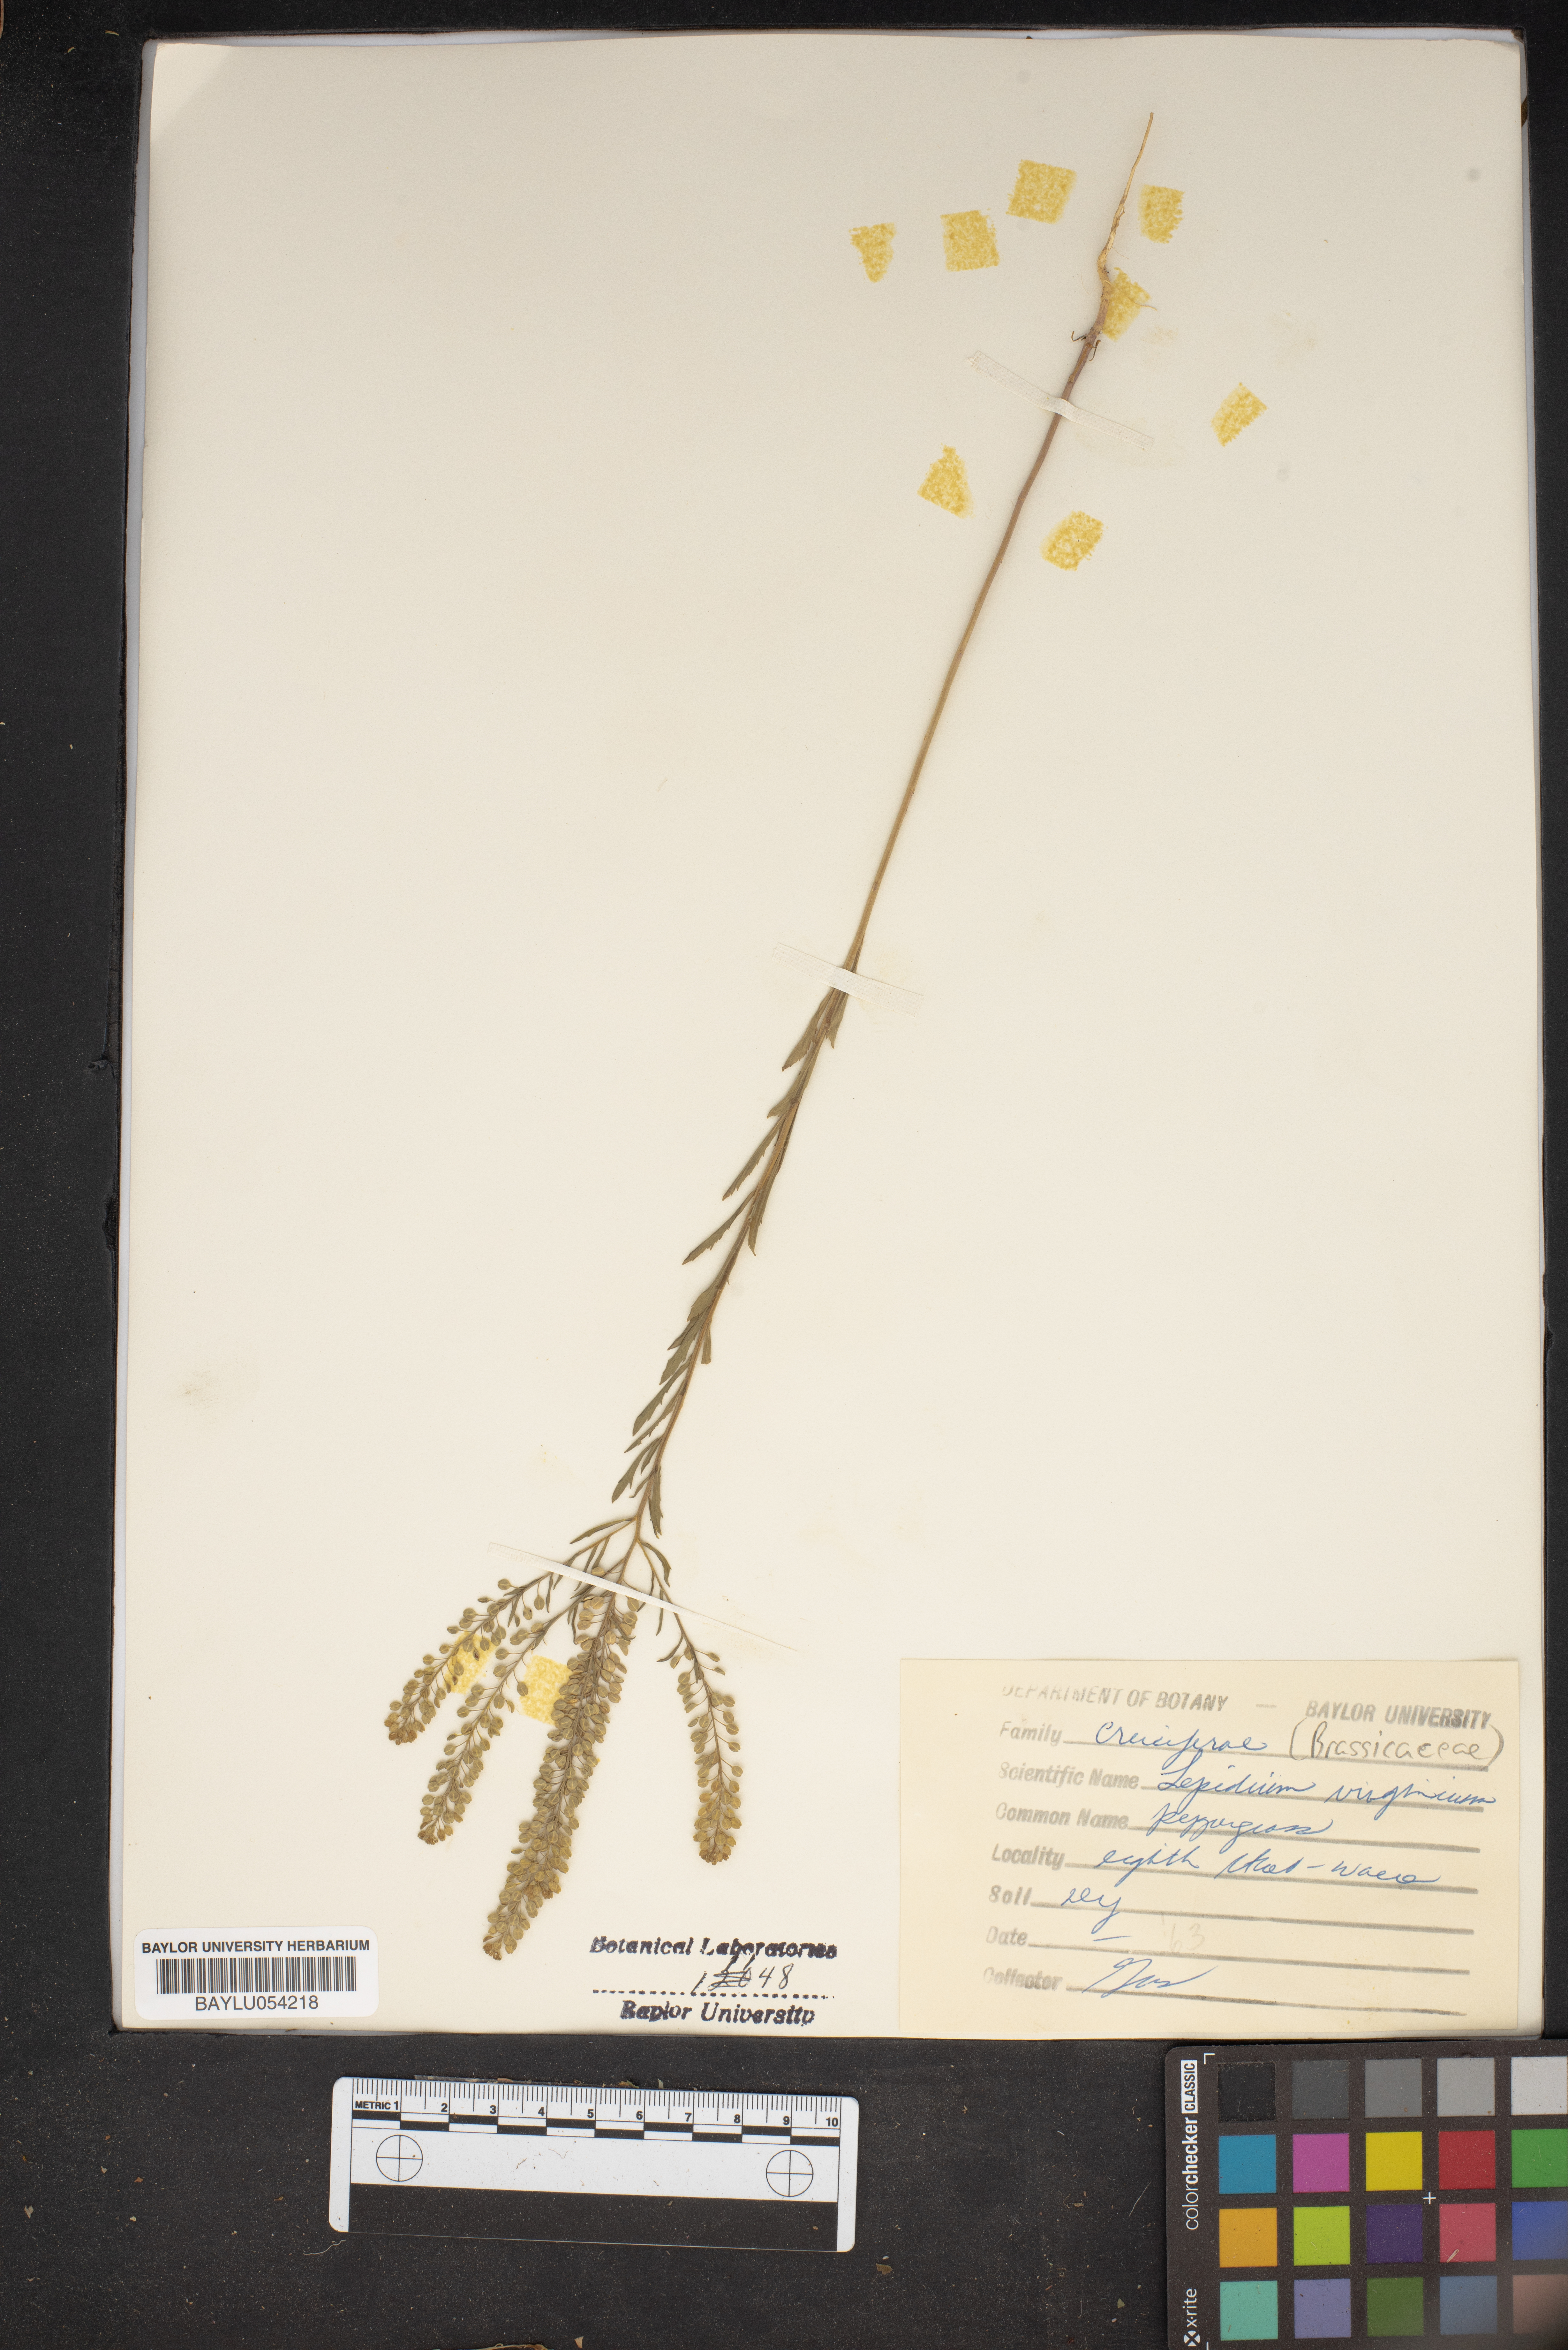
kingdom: Plantae
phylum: Tracheophyta
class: Magnoliopsida
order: Brassicales
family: Brassicaceae
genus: Lepidium
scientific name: Lepidium virginicum
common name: Least pepperwort
